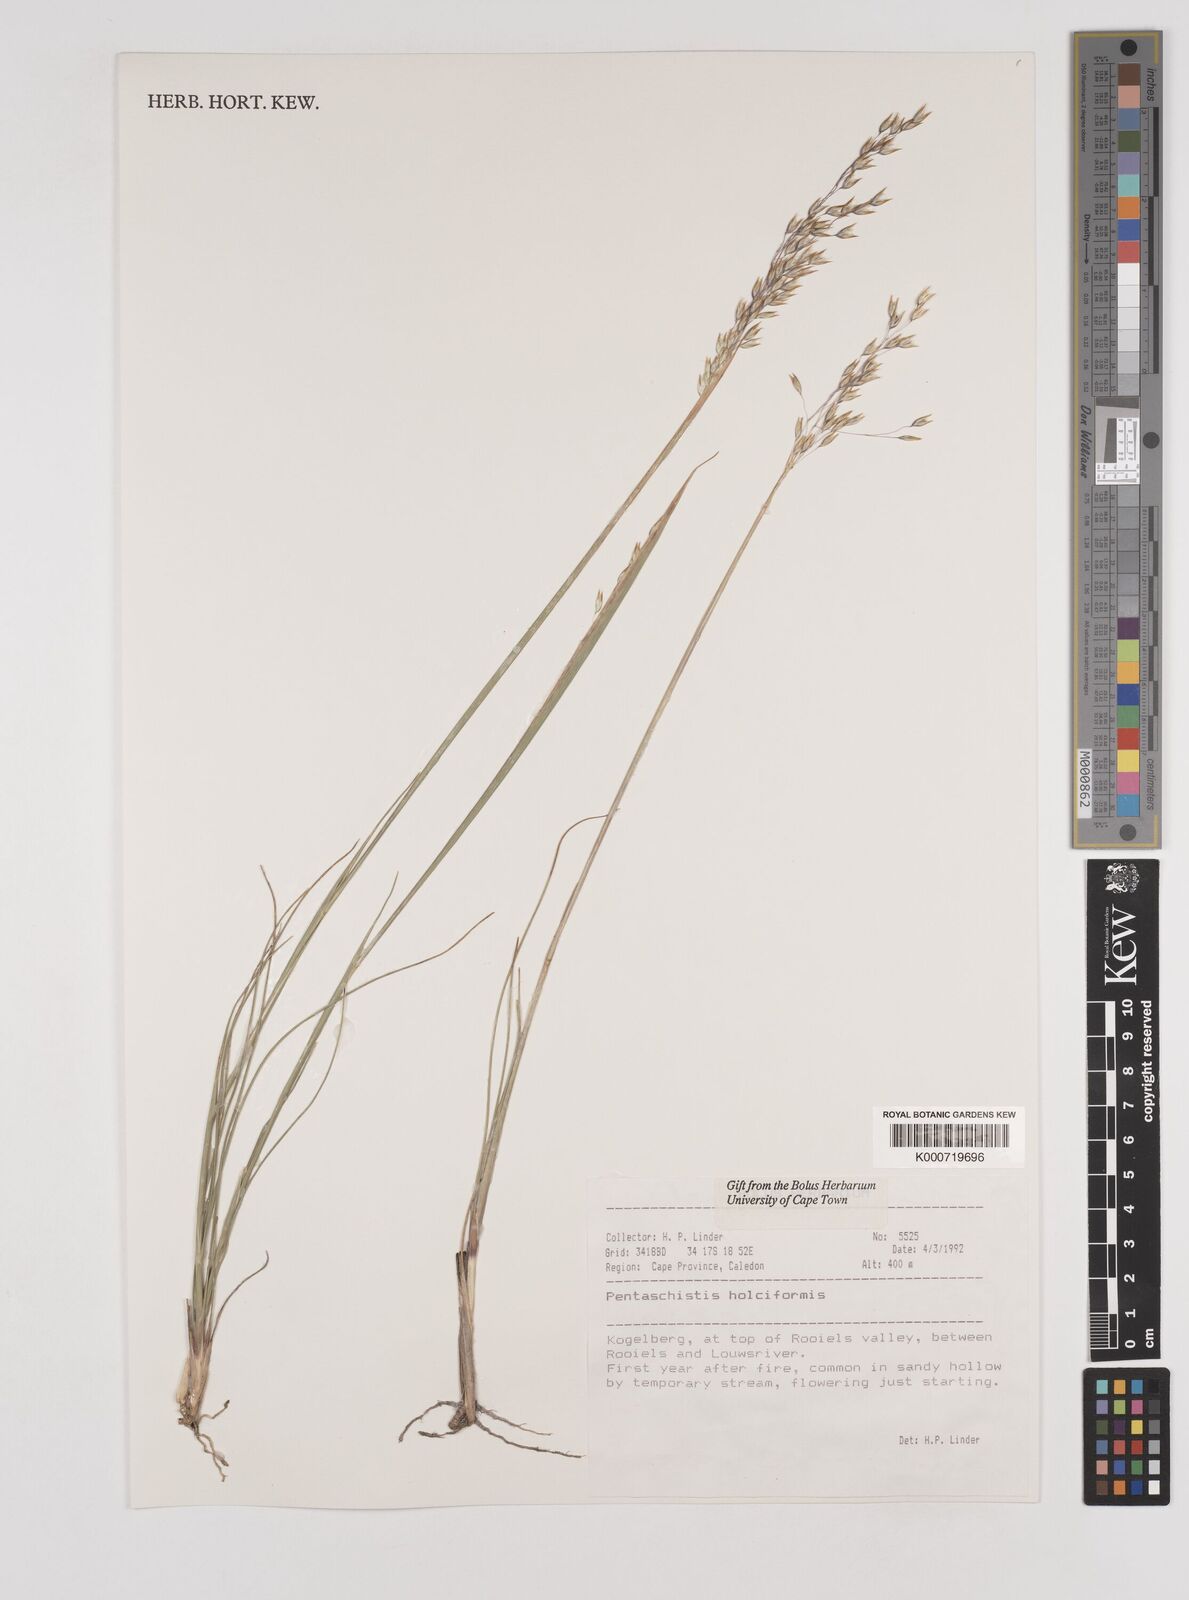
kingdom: Plantae
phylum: Tracheophyta
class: Liliopsida
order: Poales
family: Poaceae
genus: Pentameris
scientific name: Pentameris holciformis
